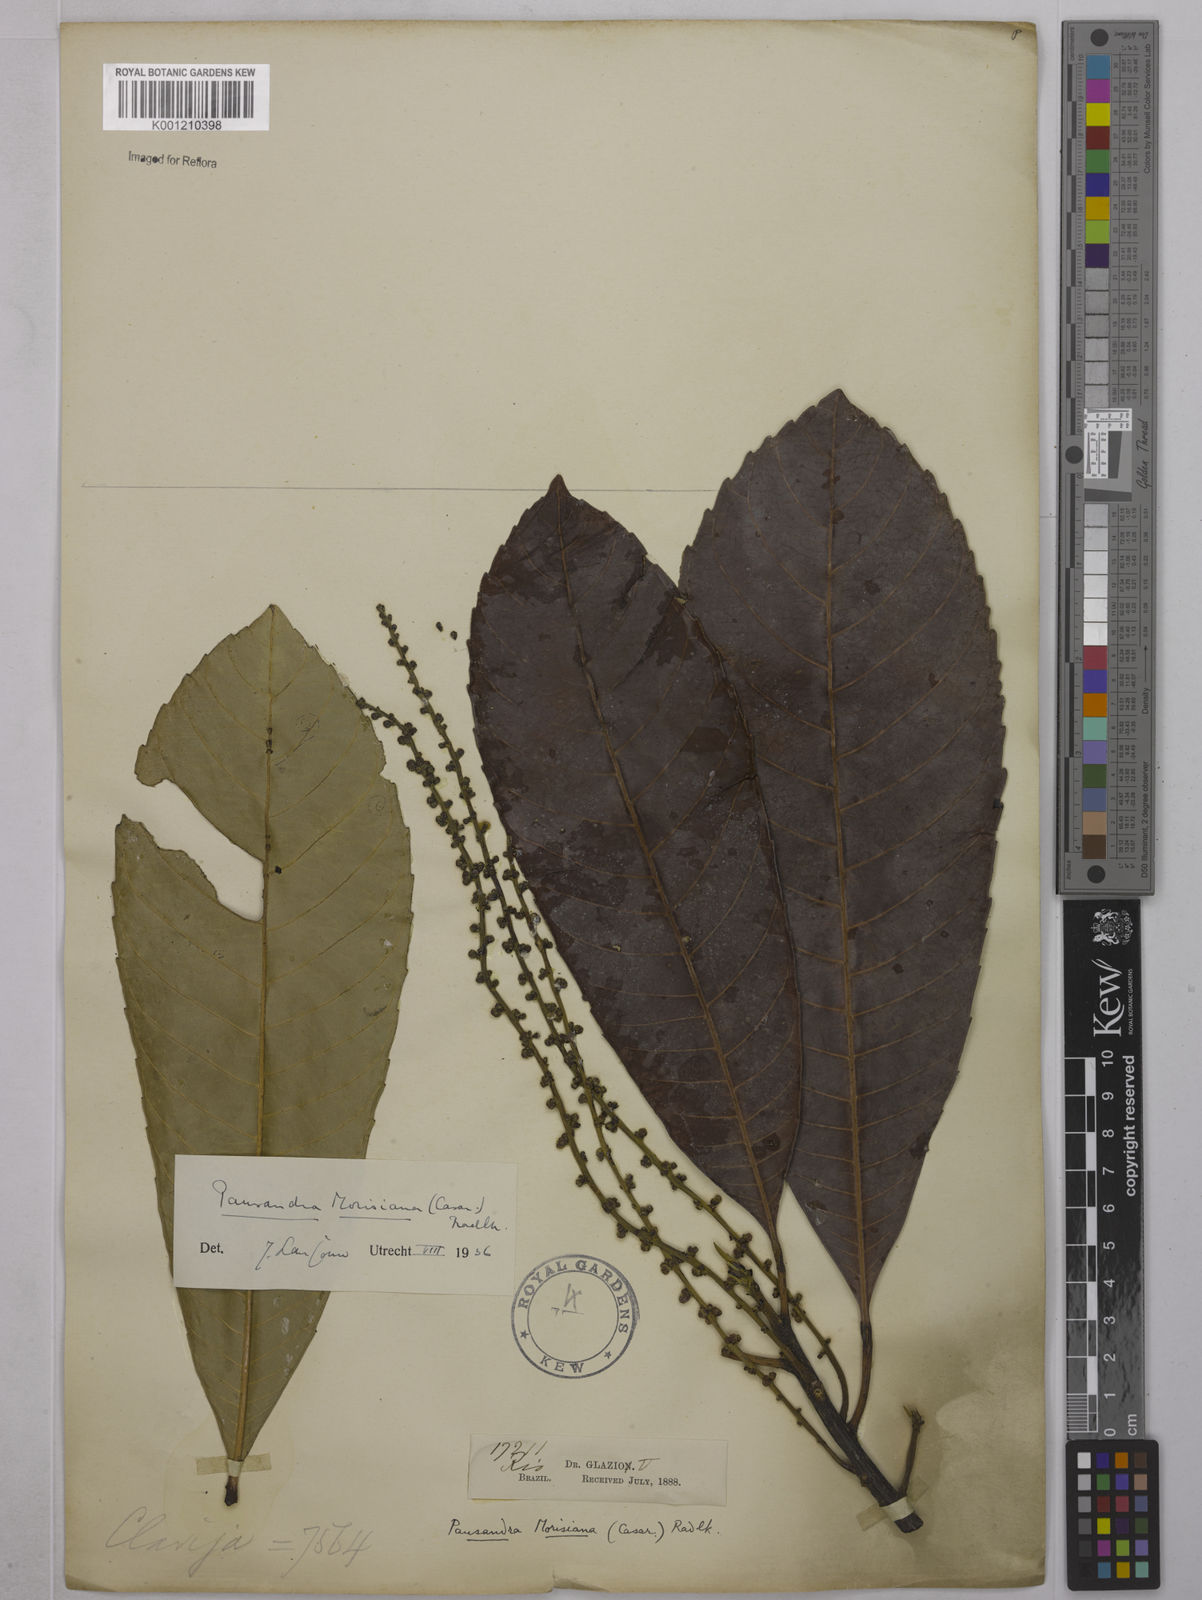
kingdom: Plantae
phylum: Tracheophyta
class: Magnoliopsida
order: Malpighiales
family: Euphorbiaceae
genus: Pausandra
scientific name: Pausandra morisiana
